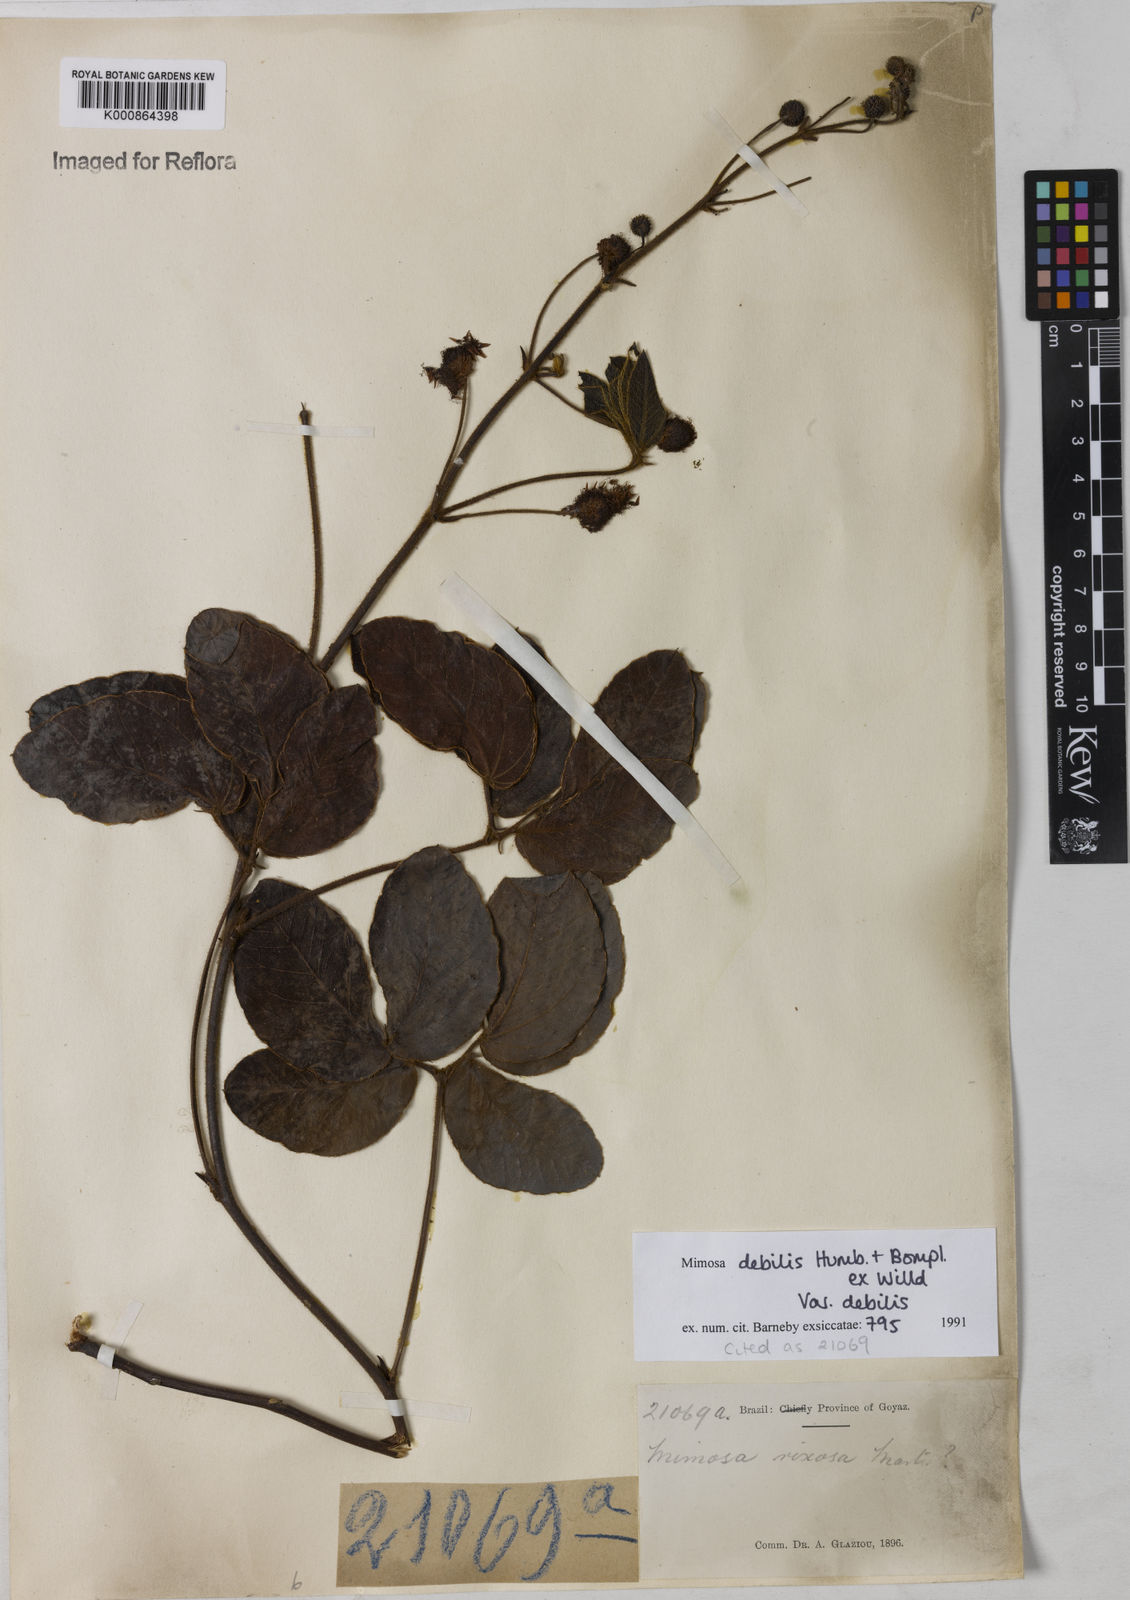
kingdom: Plantae
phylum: Tracheophyta
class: Magnoliopsida
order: Fabales
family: Fabaceae
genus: Mimosa
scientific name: Mimosa debilis
